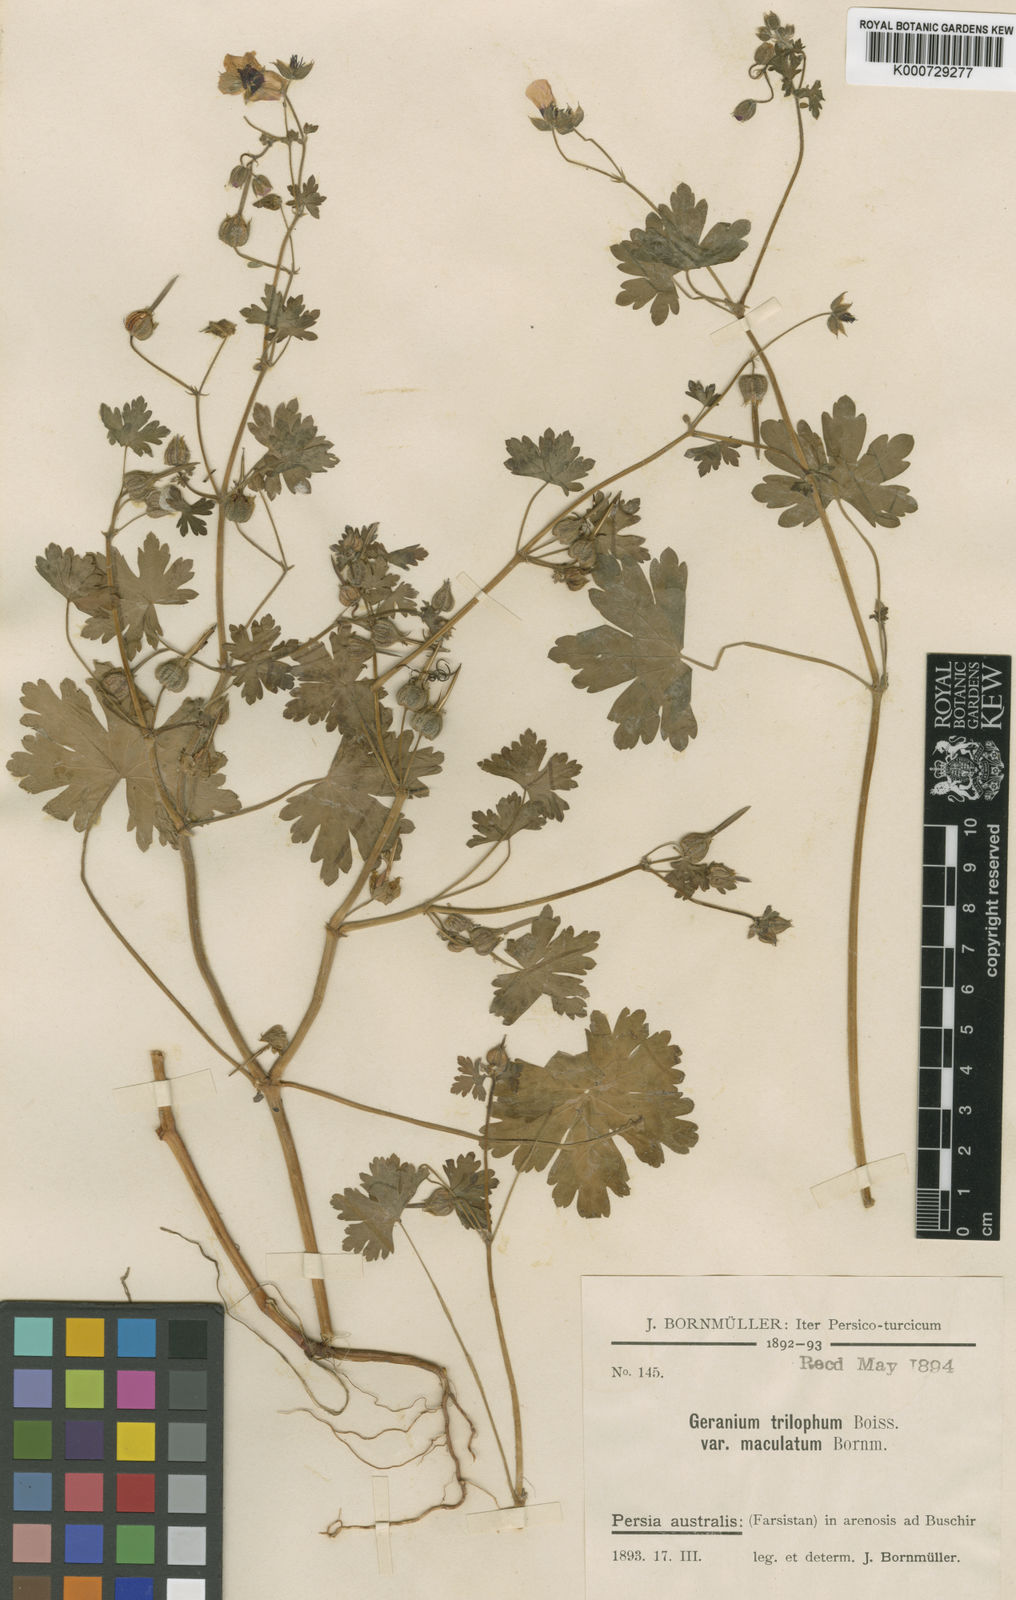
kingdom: Plantae
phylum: Tracheophyta
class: Magnoliopsida
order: Geraniales
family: Geraniaceae
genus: Geranium
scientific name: Geranium trilophum
